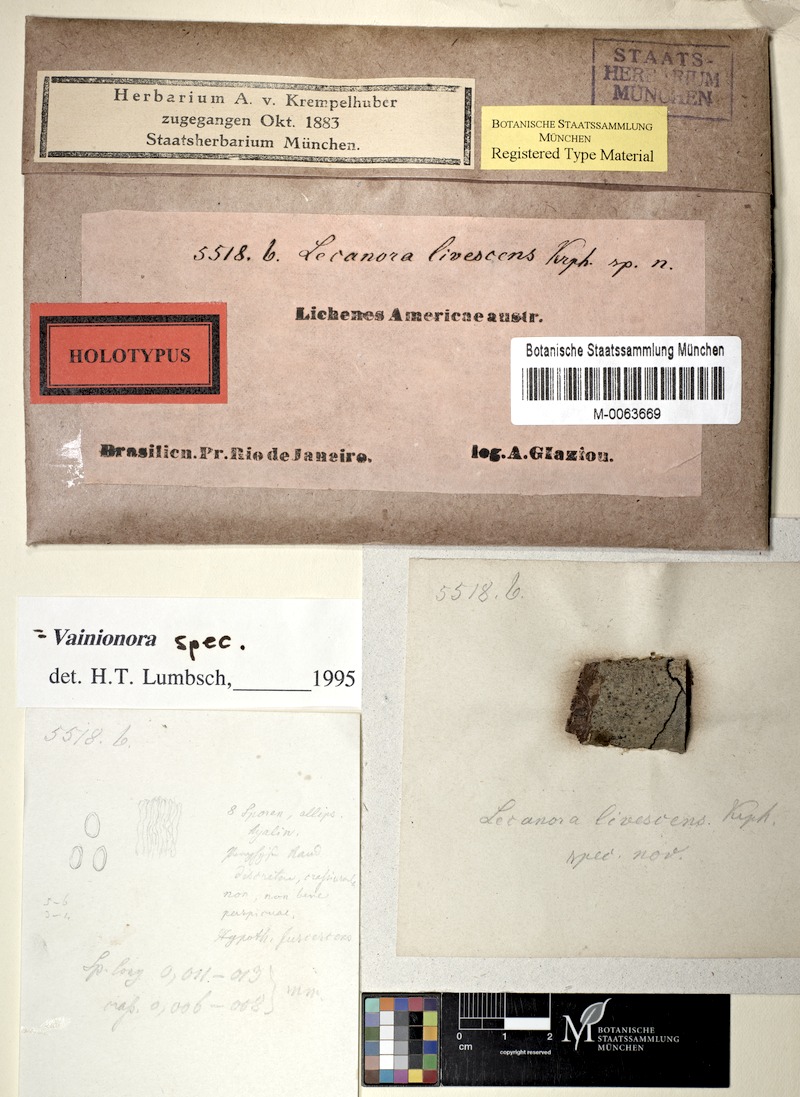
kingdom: Fungi
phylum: Ascomycota
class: Lecanoromycetes
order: Lecanorales
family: Lecanoraceae
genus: Lecanora
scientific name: Lecanora
